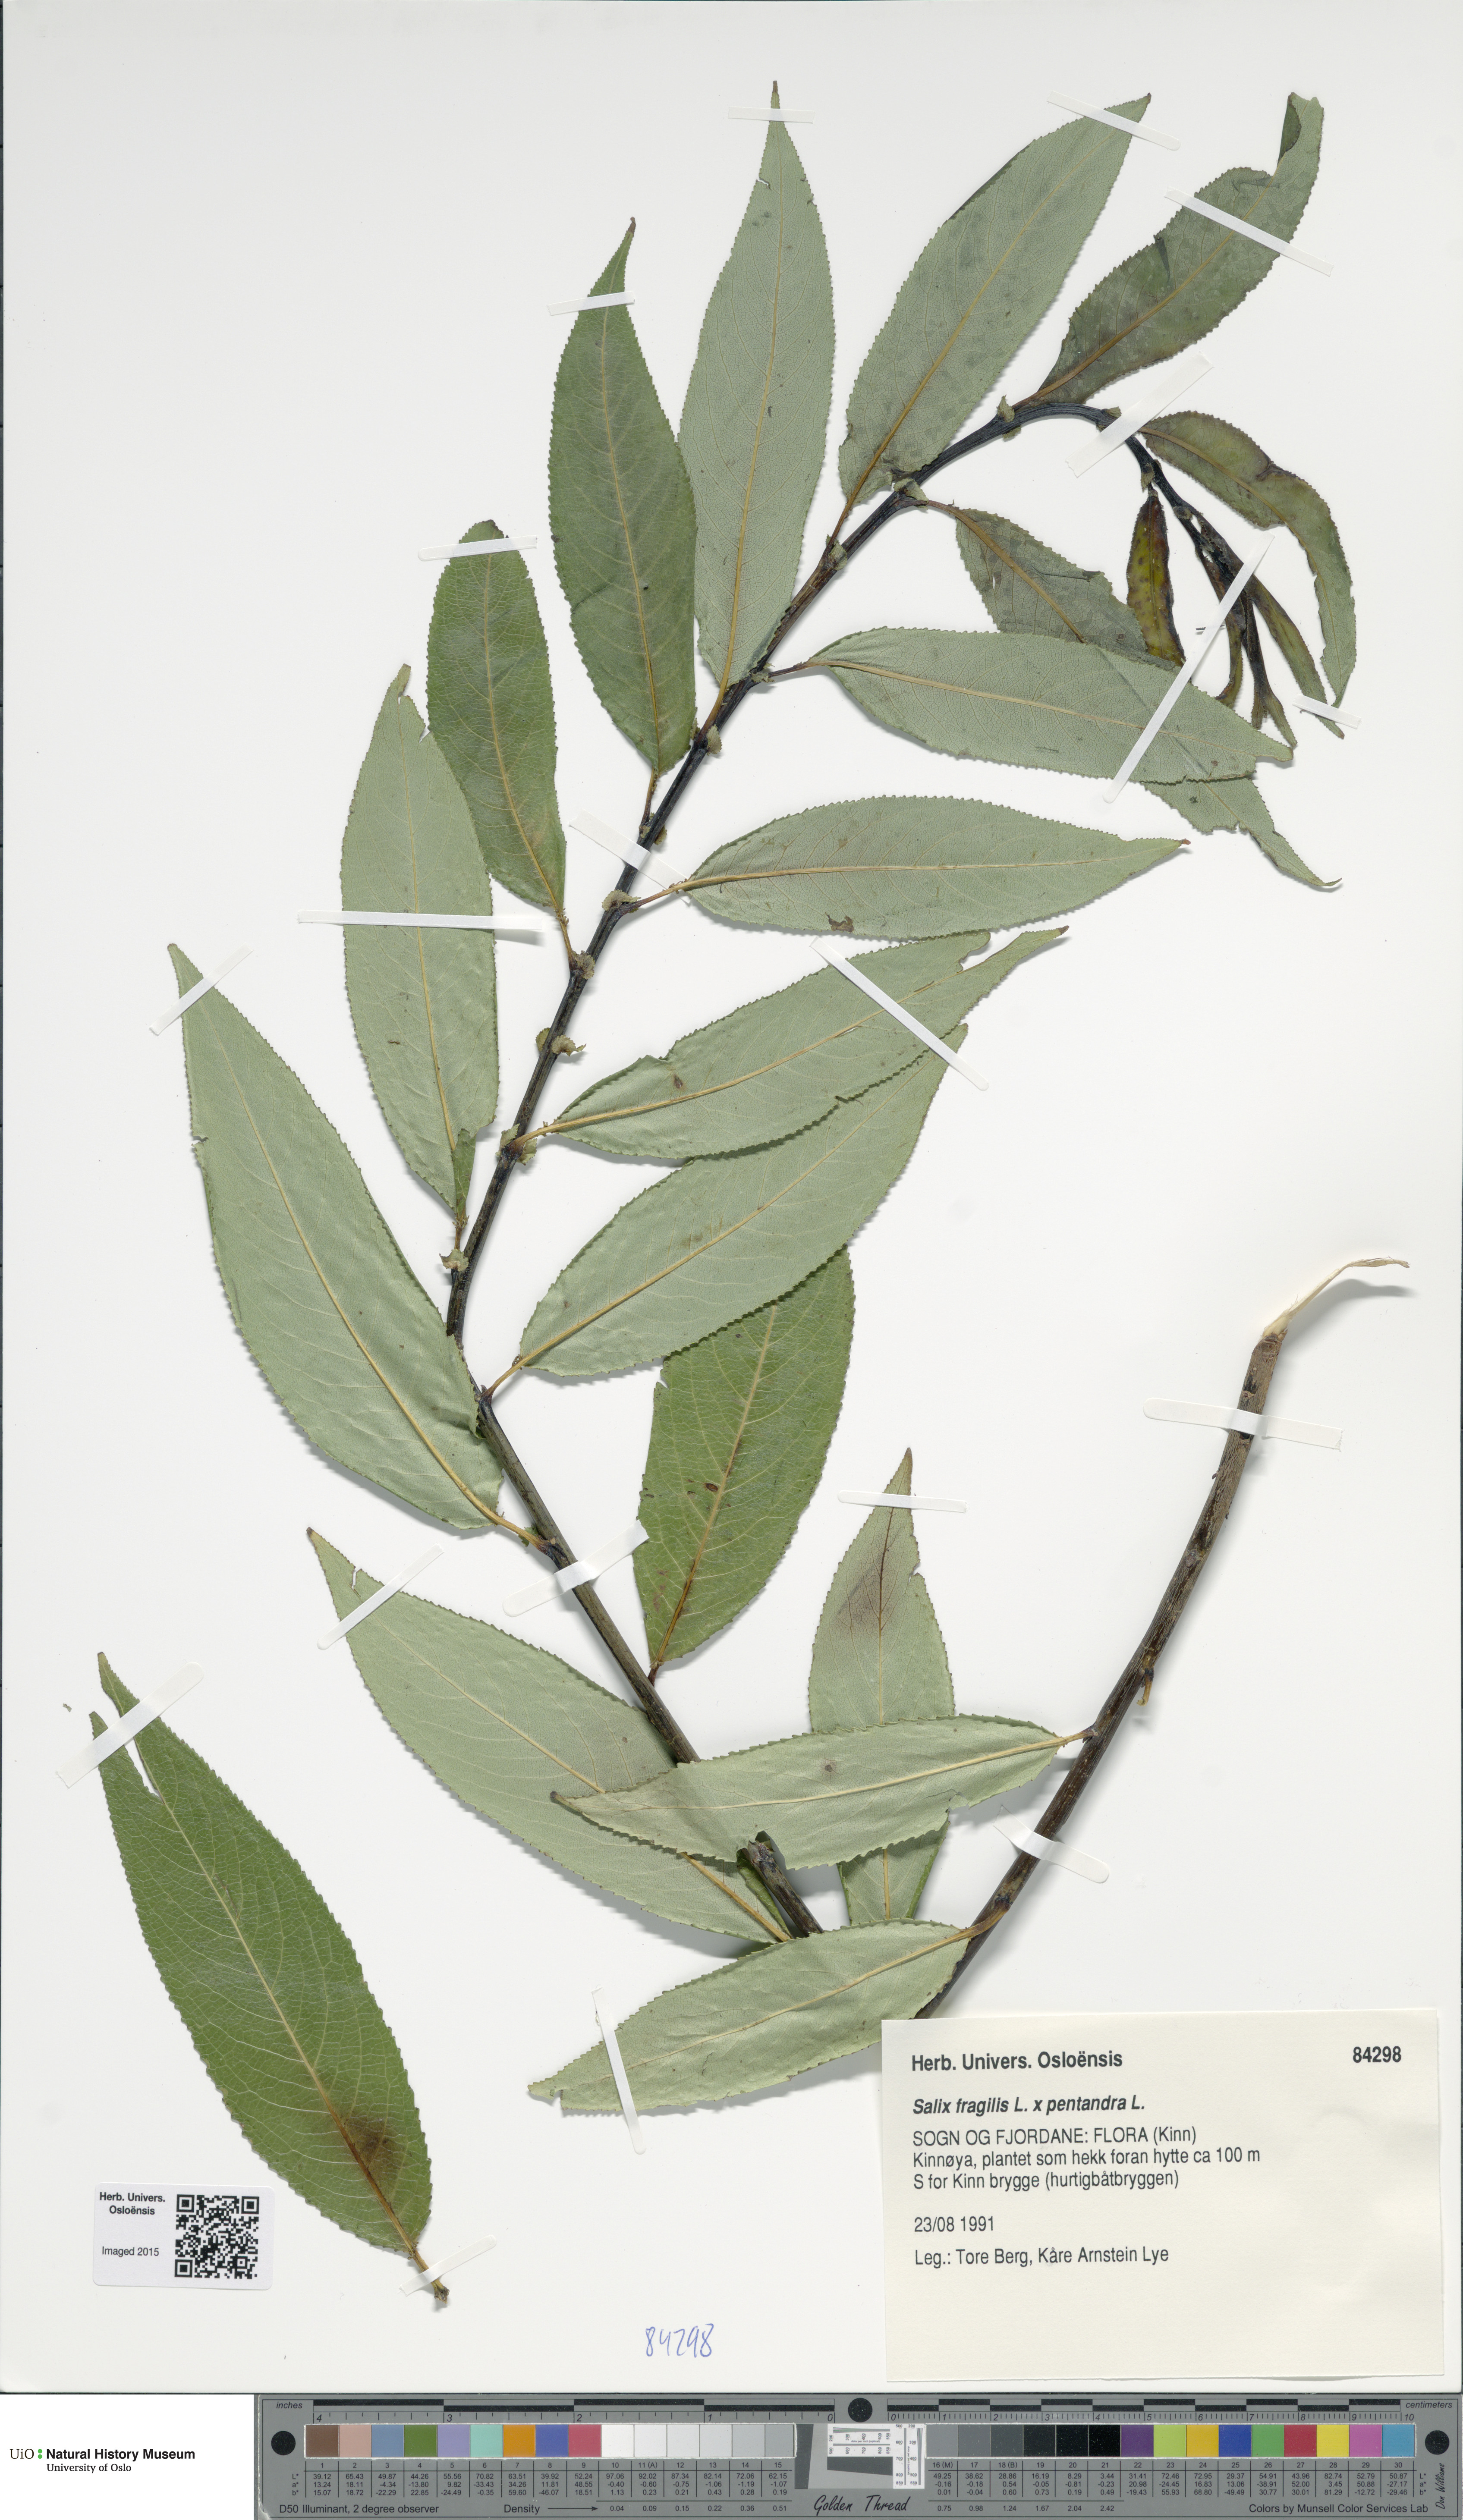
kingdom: Plantae
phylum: Tracheophyta
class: Magnoliopsida
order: Malpighiales
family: Salicaceae
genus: Salix
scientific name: Salix
